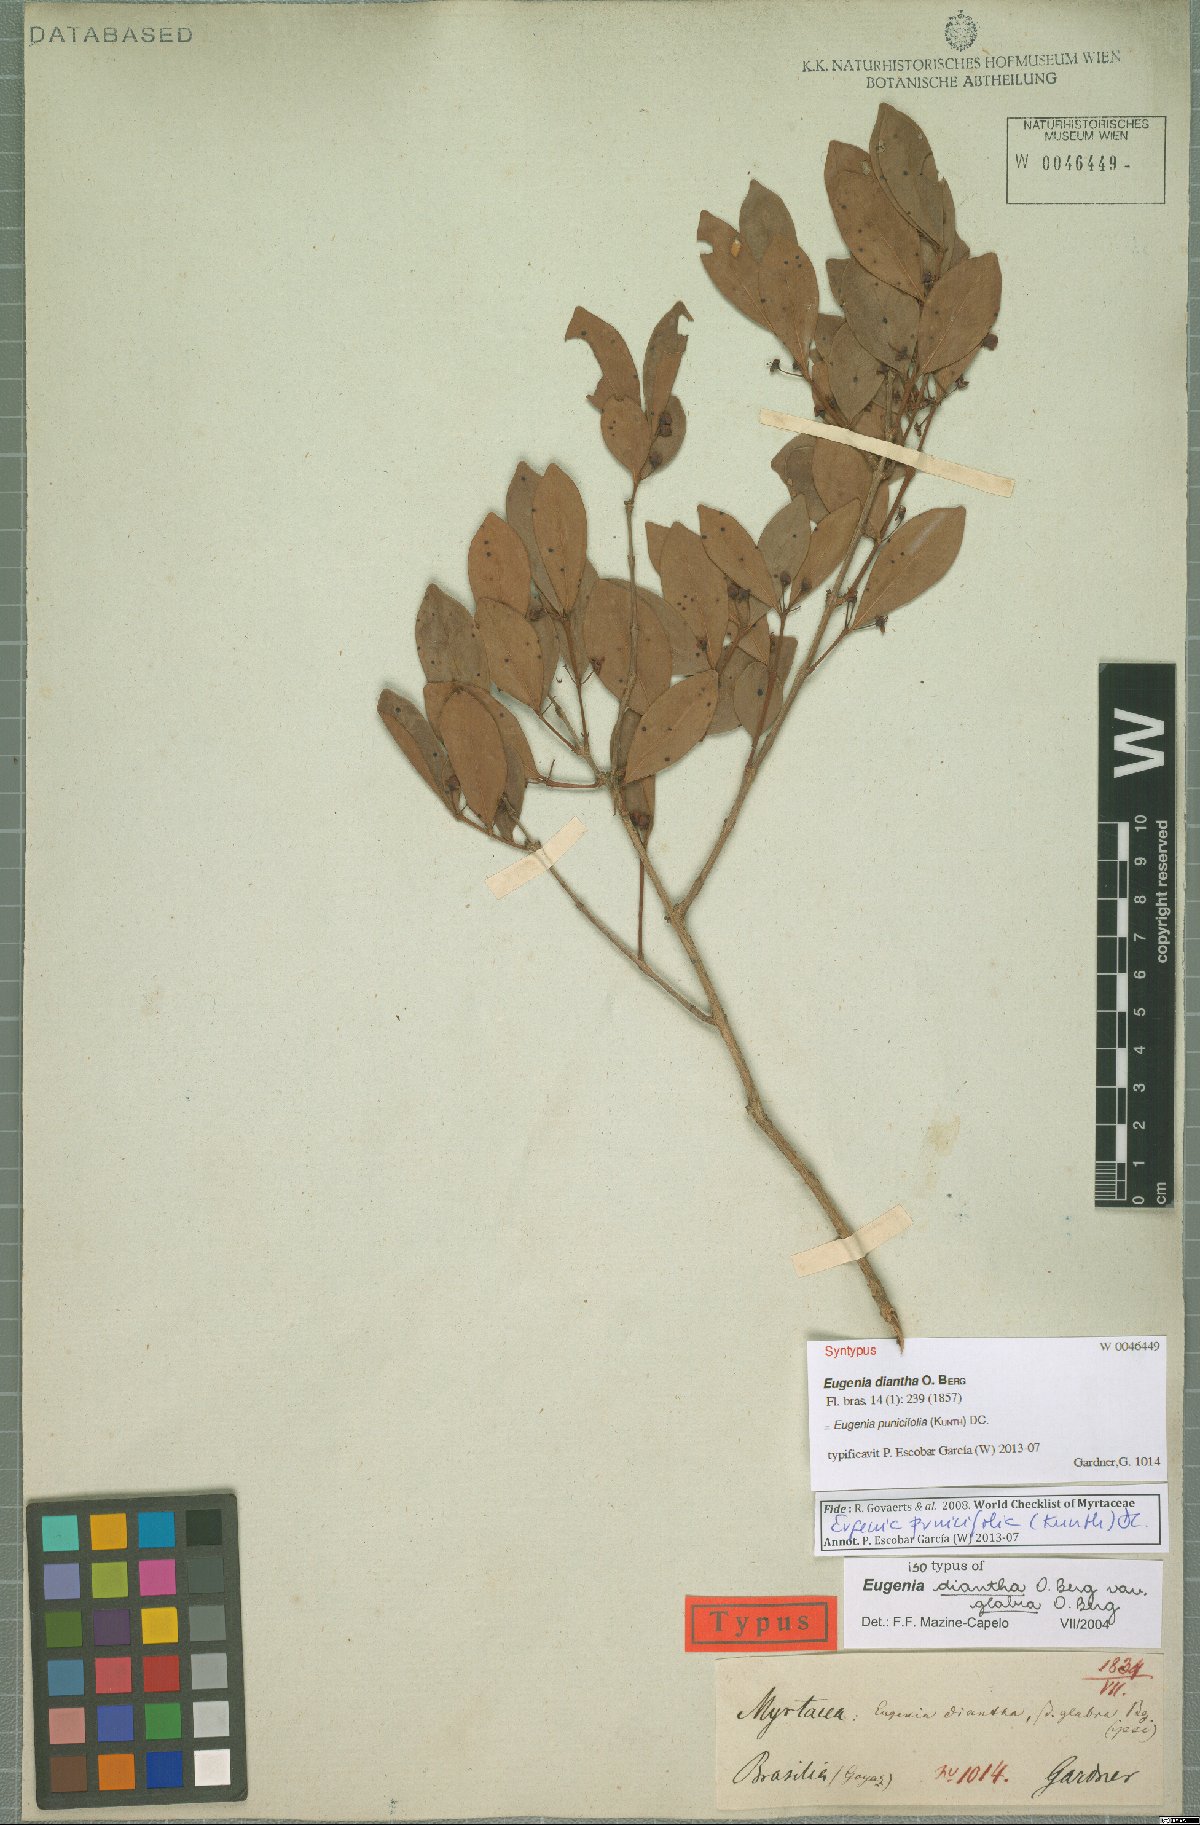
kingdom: Plantae
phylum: Tracheophyta
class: Magnoliopsida
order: Myrtales
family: Myrtaceae
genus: Eugenia
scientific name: Eugenia punicifolia
